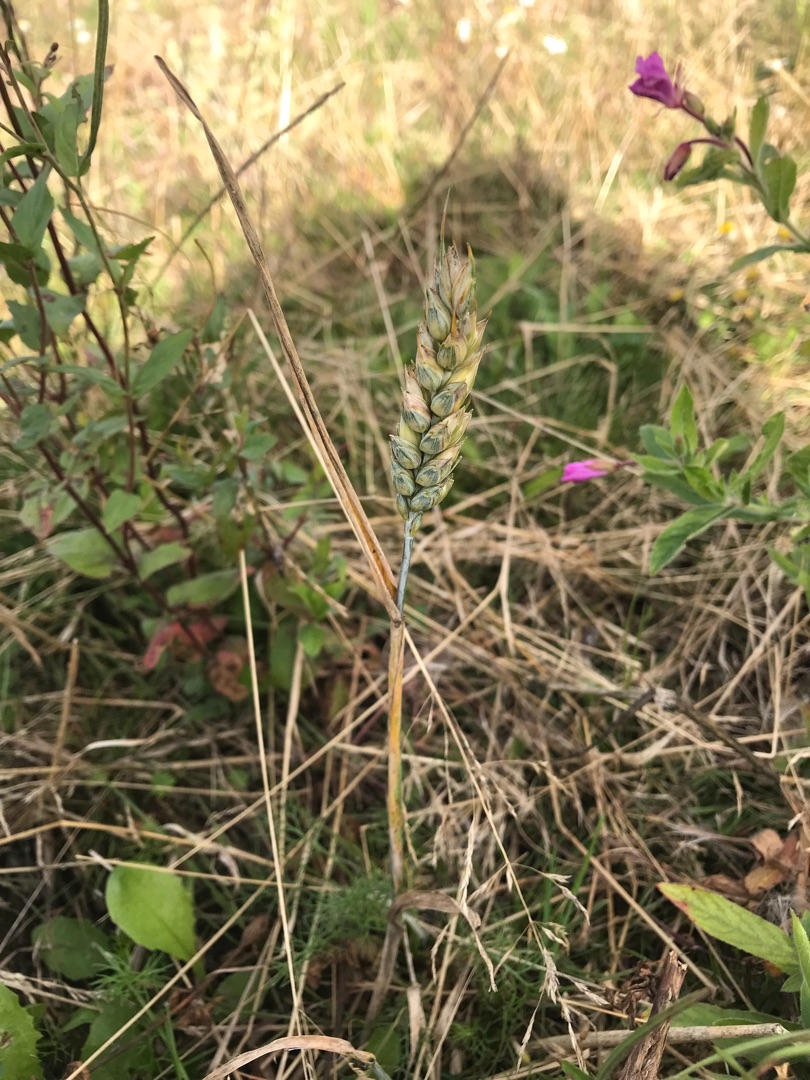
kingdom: Plantae
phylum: Tracheophyta
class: Liliopsida
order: Poales
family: Poaceae
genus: Triticum
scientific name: Triticum aestivum
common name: Almindelig hvede
